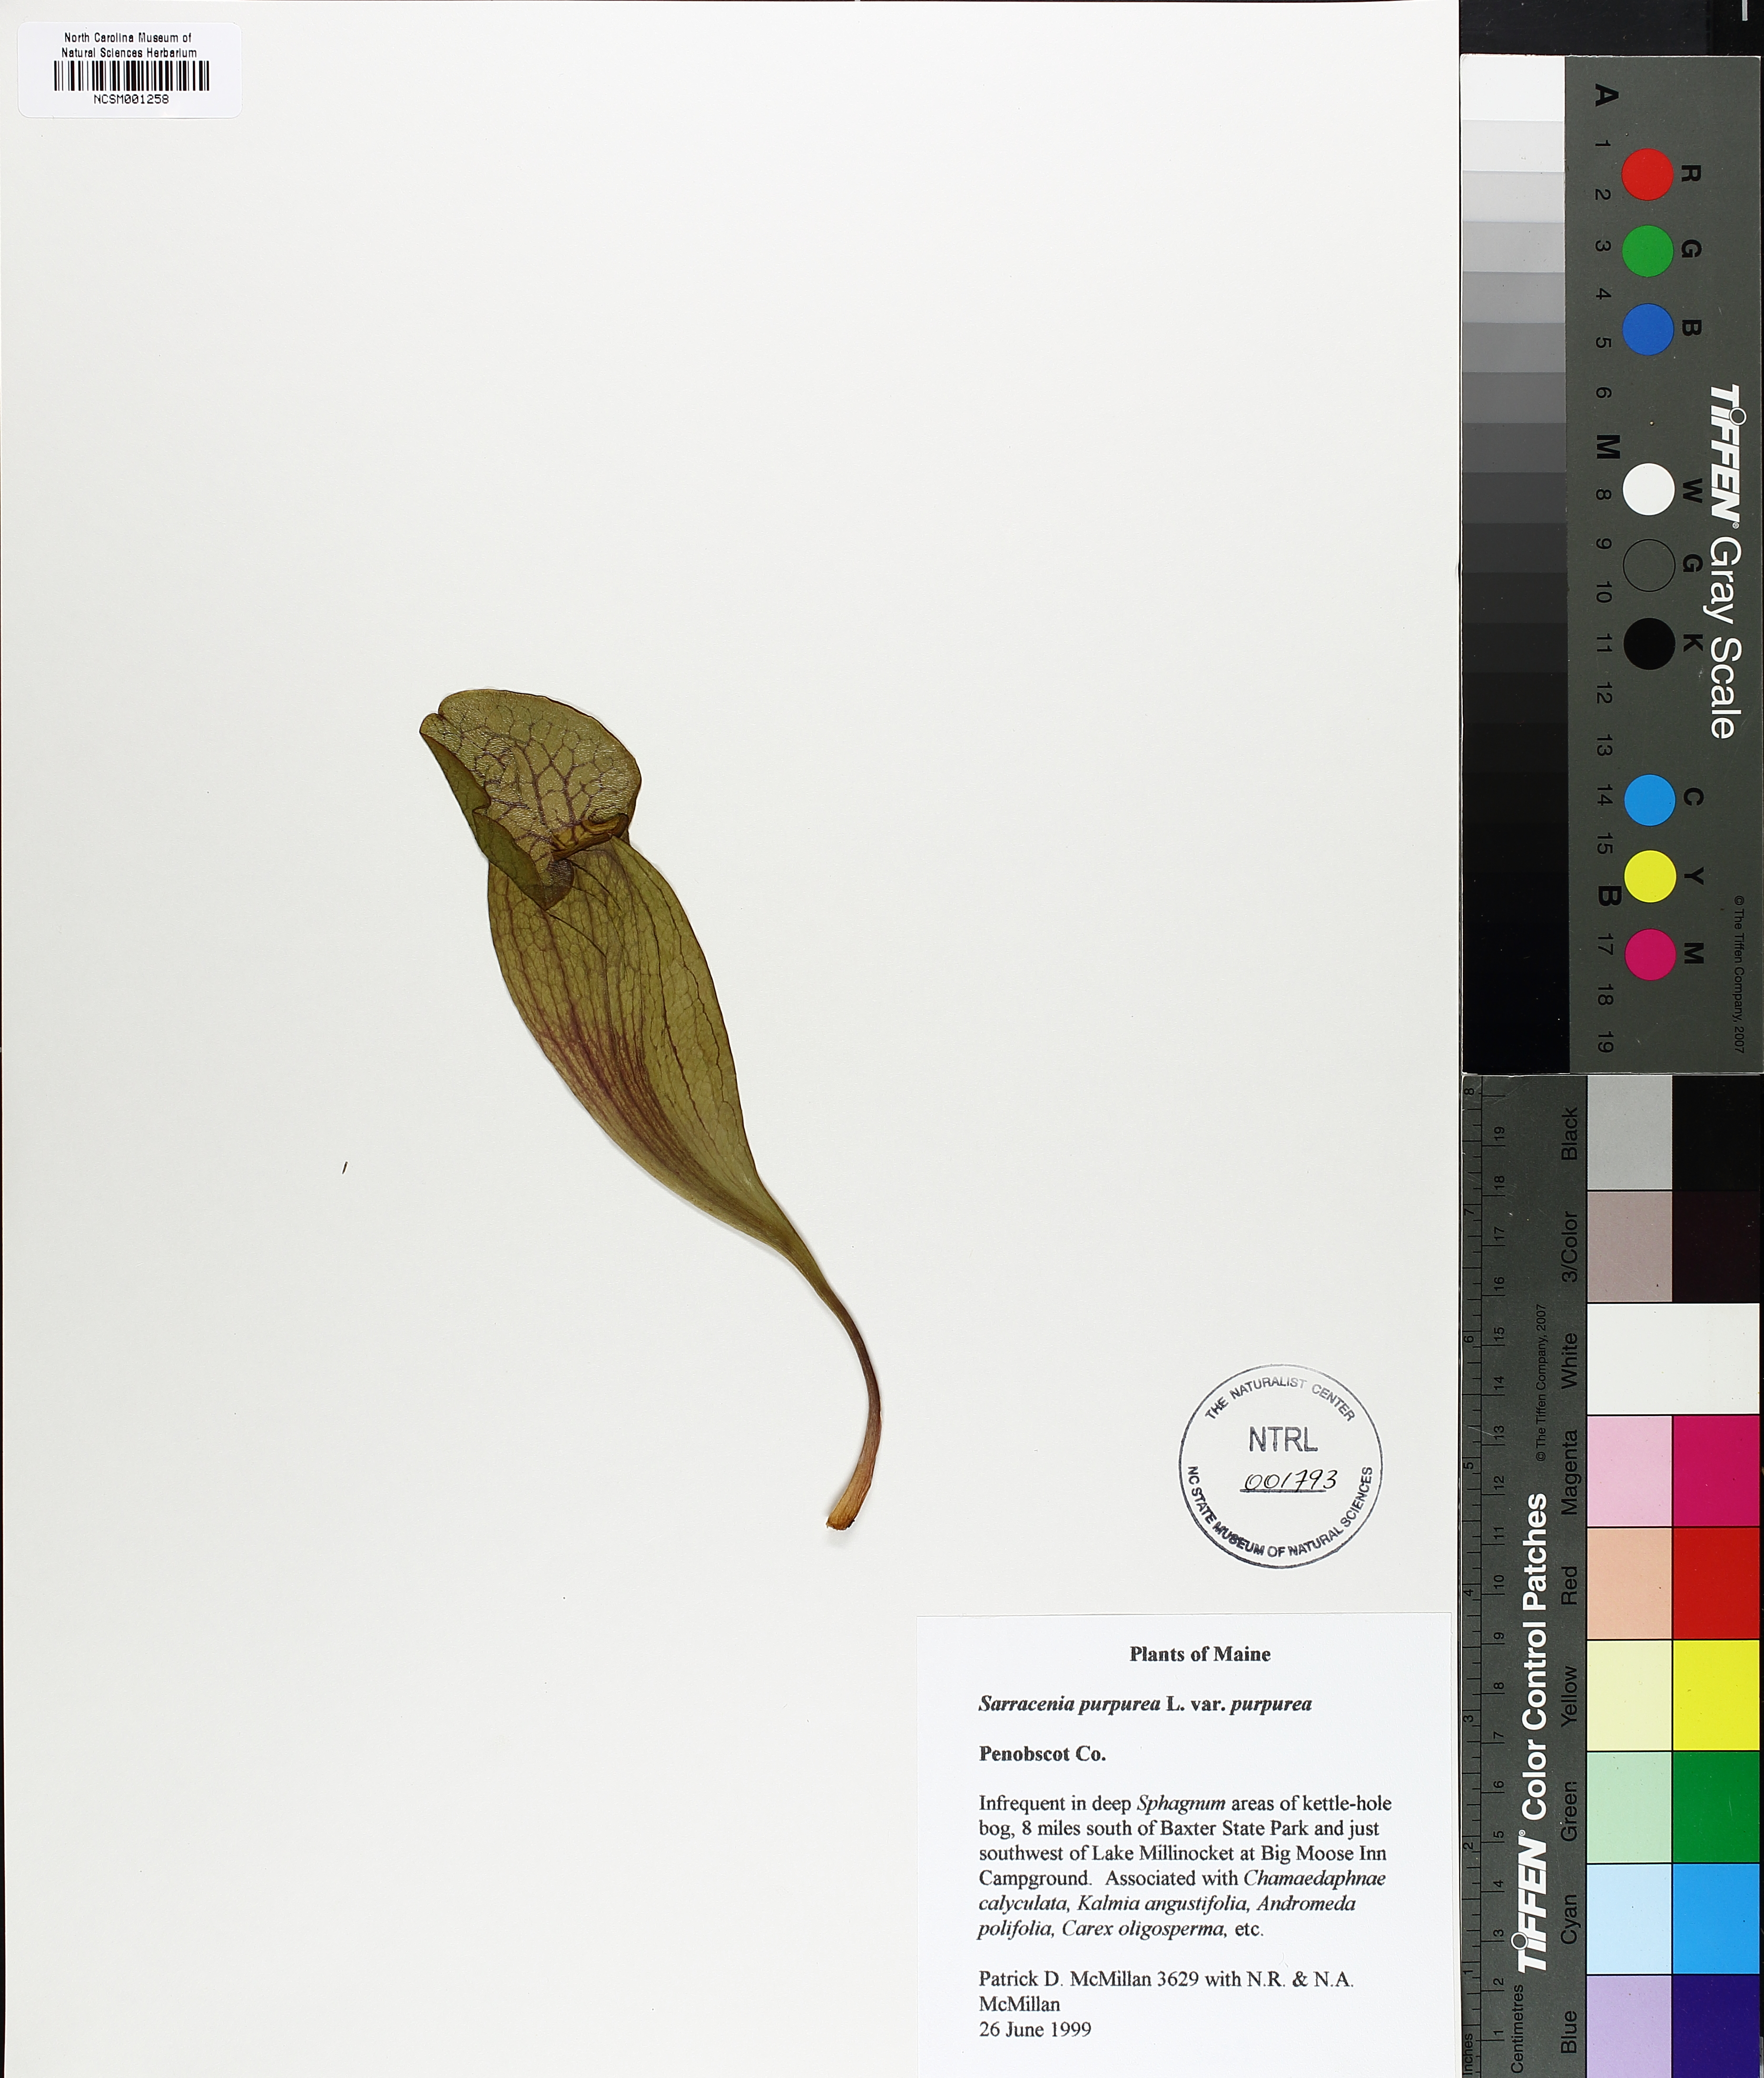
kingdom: Plantae
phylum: Tracheophyta
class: Magnoliopsida
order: Ericales
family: Sarraceniaceae
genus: Sarracenia
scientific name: Sarracenia purpurea
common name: Pitcherplant
